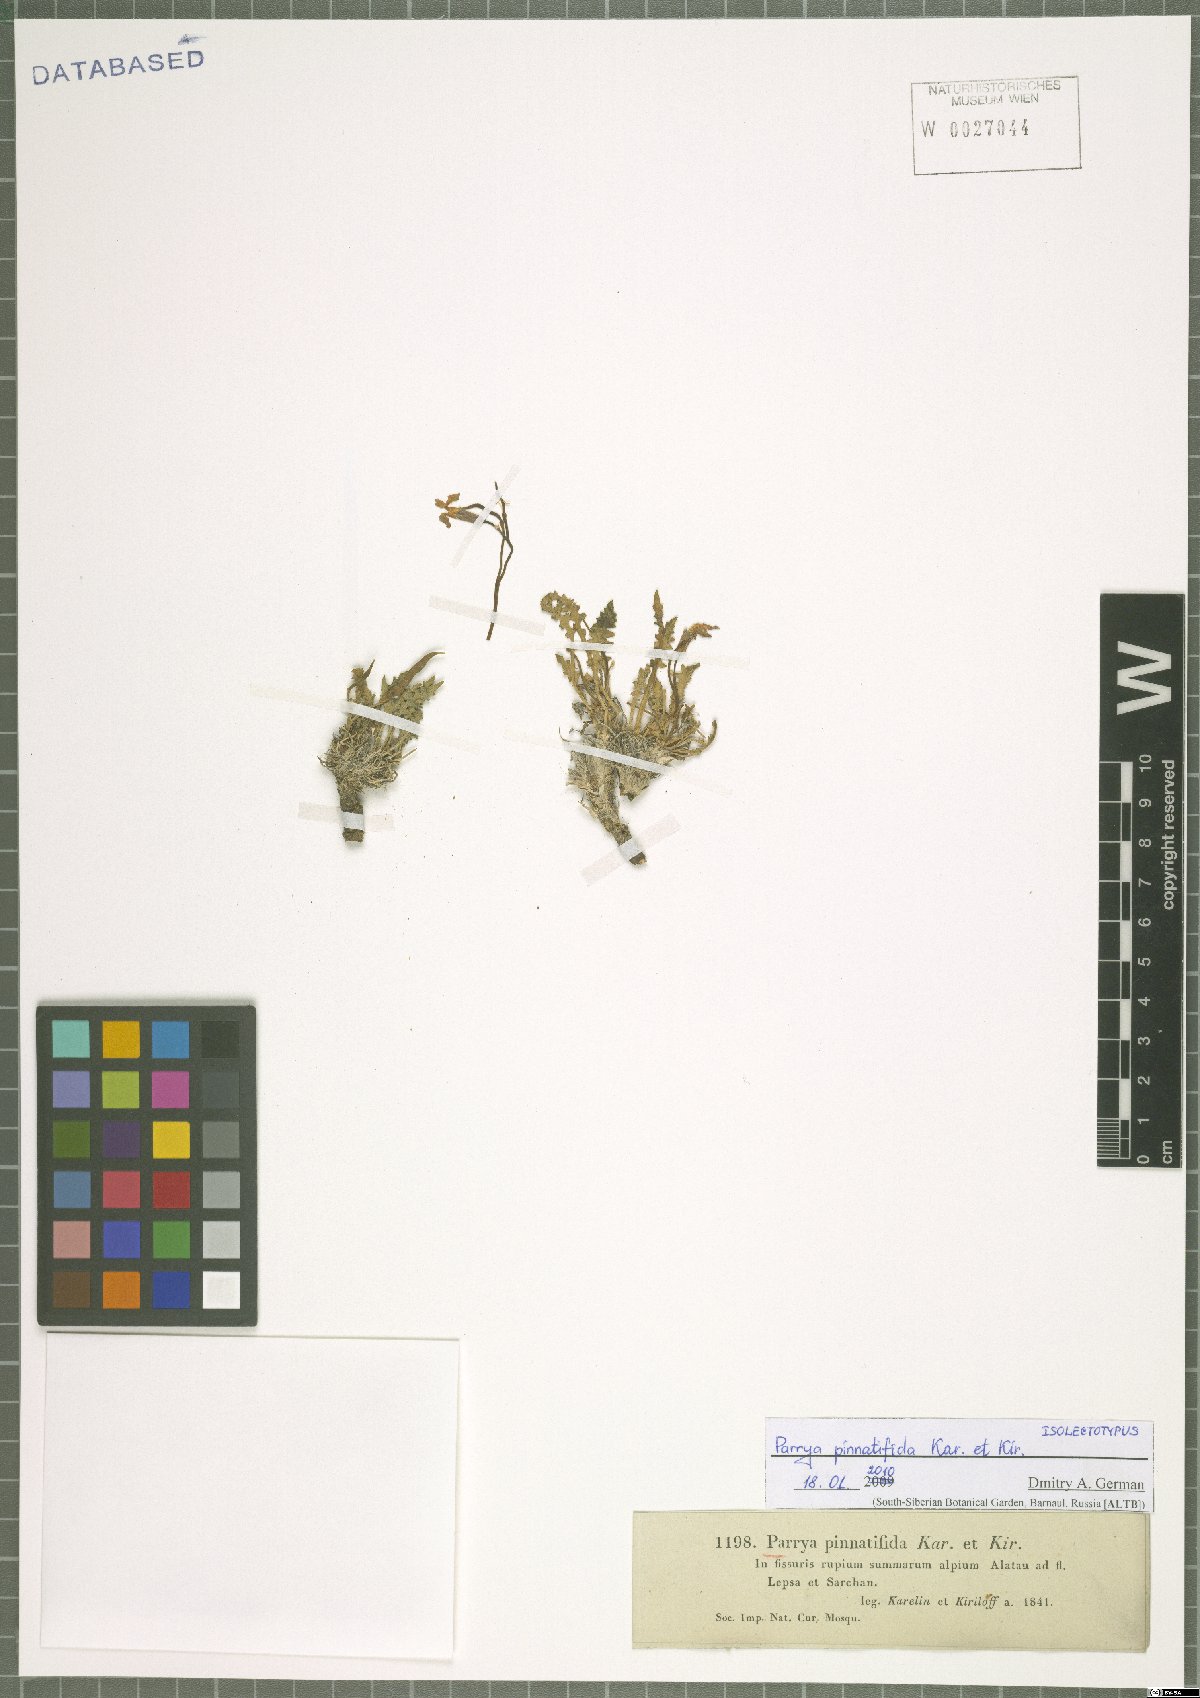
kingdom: Plantae
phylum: Tracheophyta
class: Magnoliopsida
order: Brassicales
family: Brassicaceae
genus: Parrya
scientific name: Parrya pinnatifida
